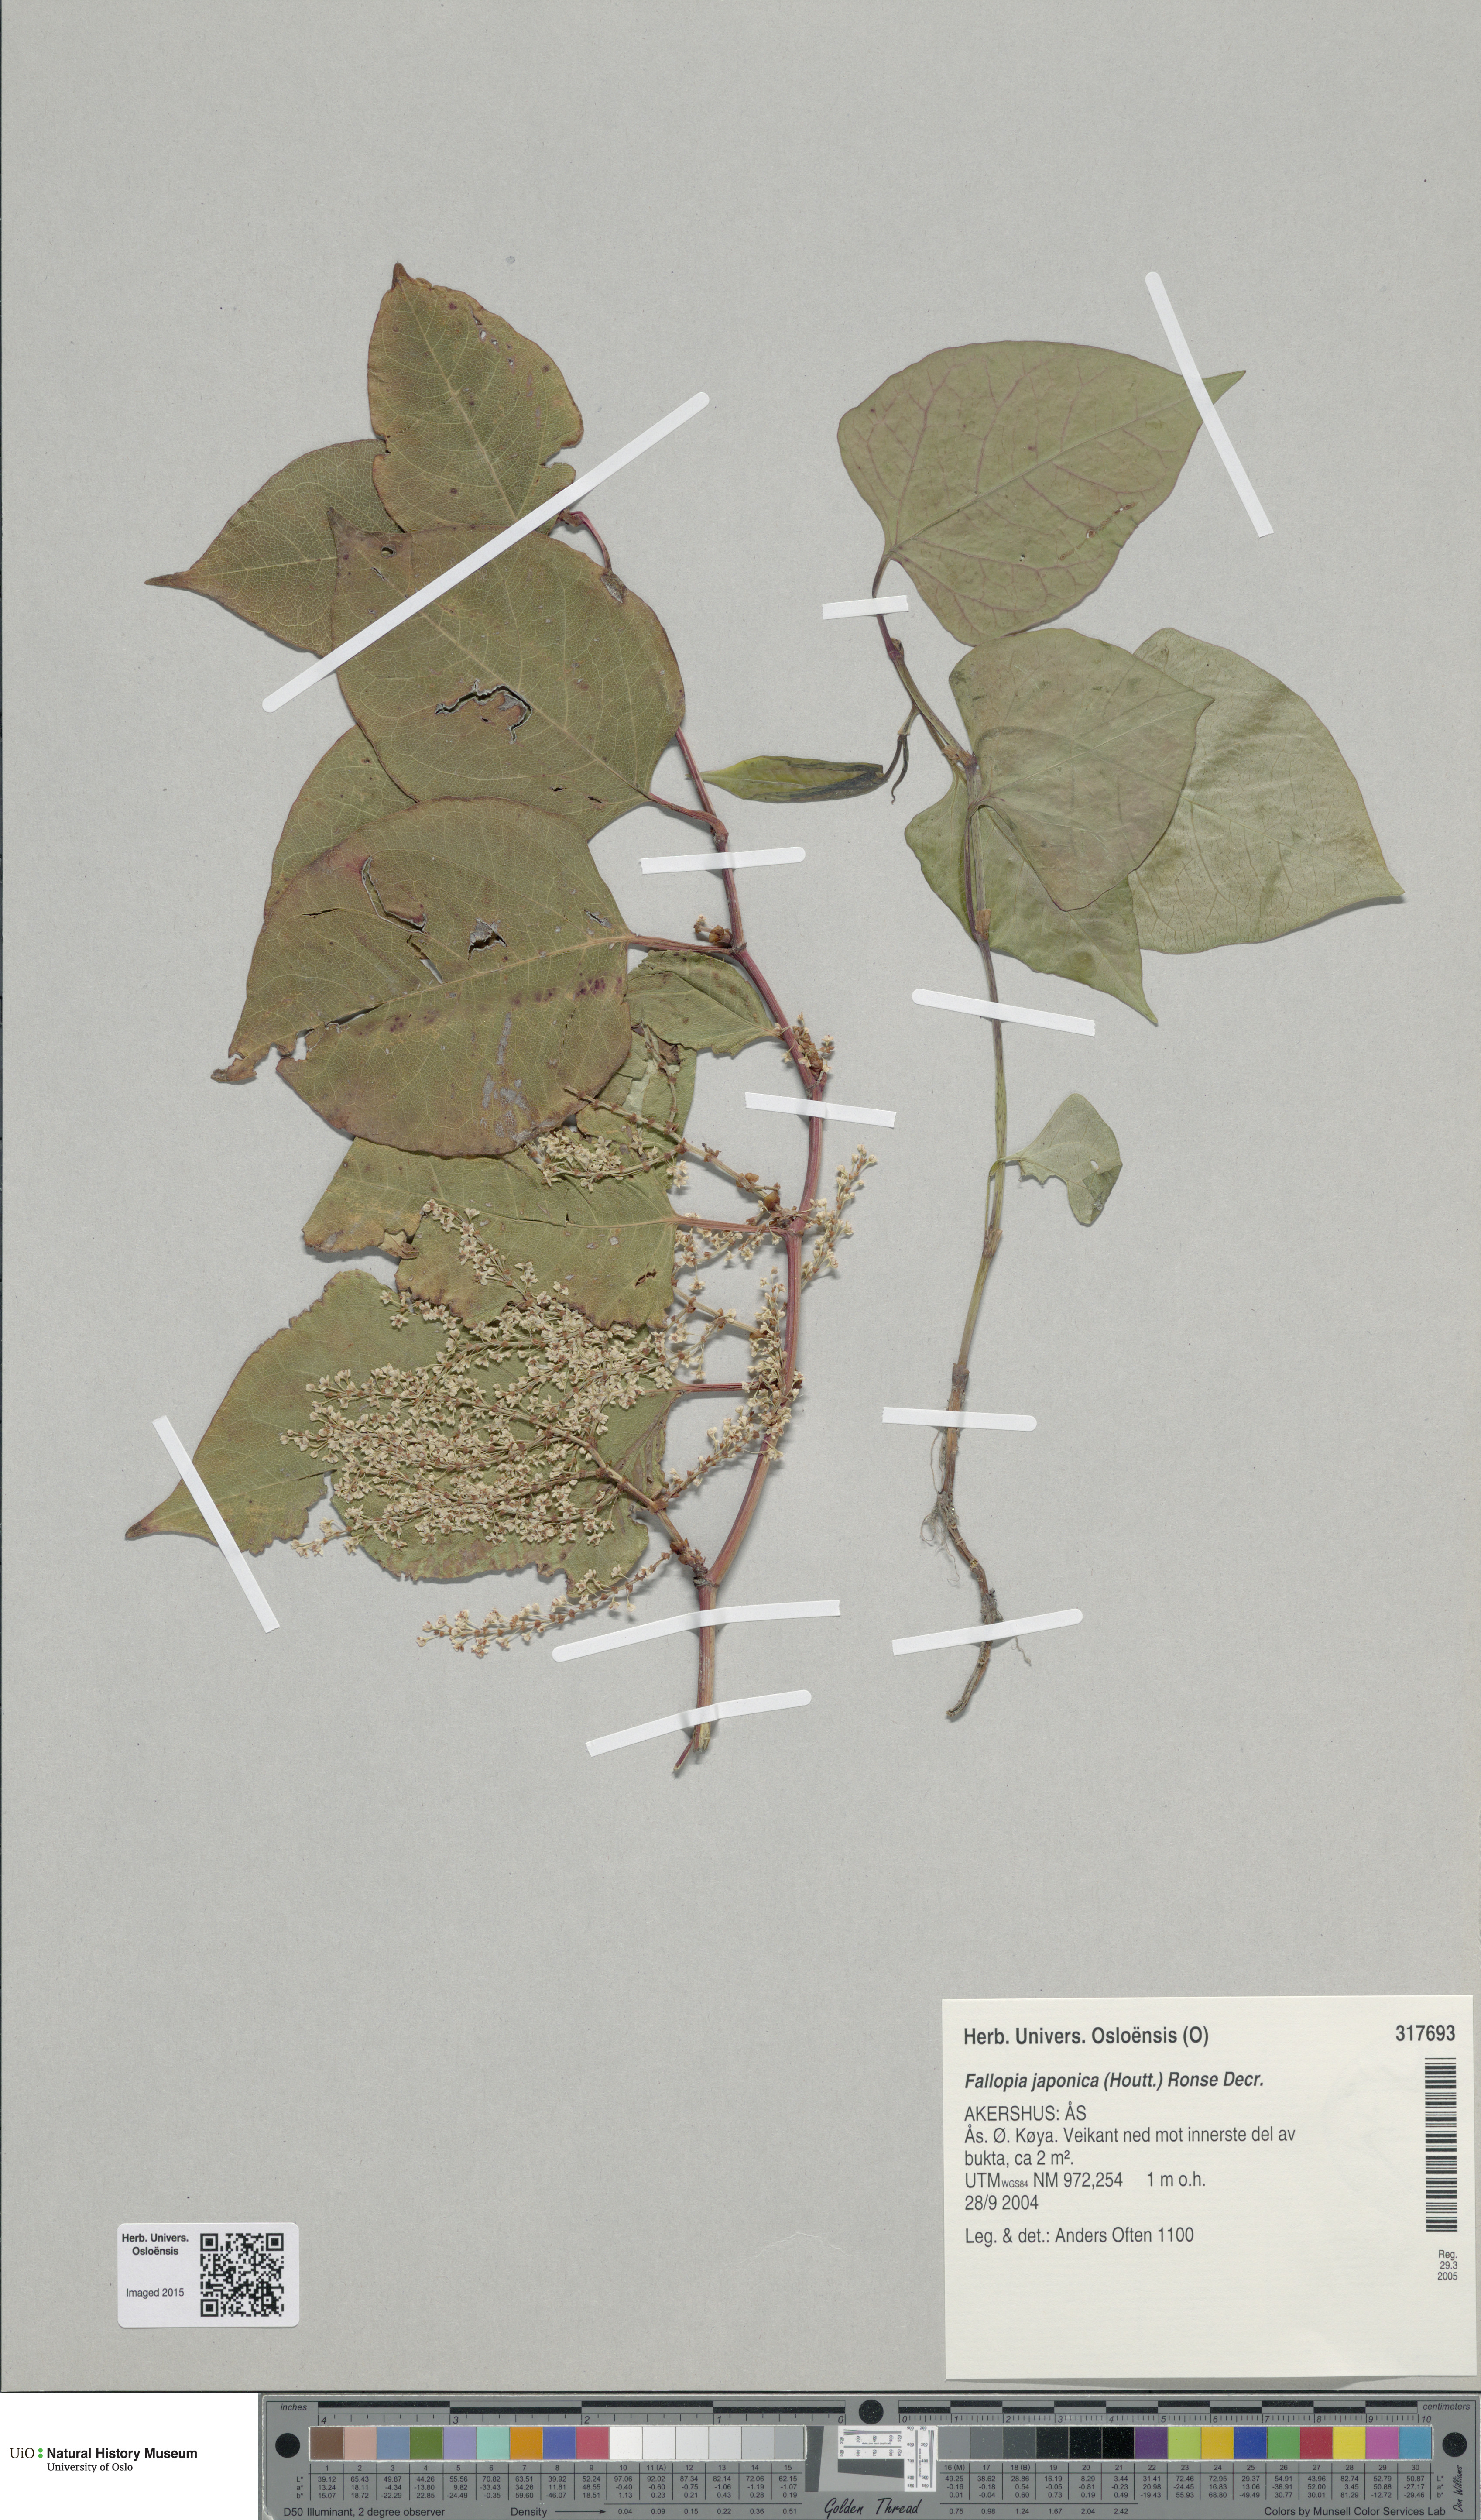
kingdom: Plantae
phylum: Tracheophyta
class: Magnoliopsida
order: Caryophyllales
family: Polygonaceae
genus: Reynoutria
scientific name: Reynoutria japonica
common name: Japanese knotweed
